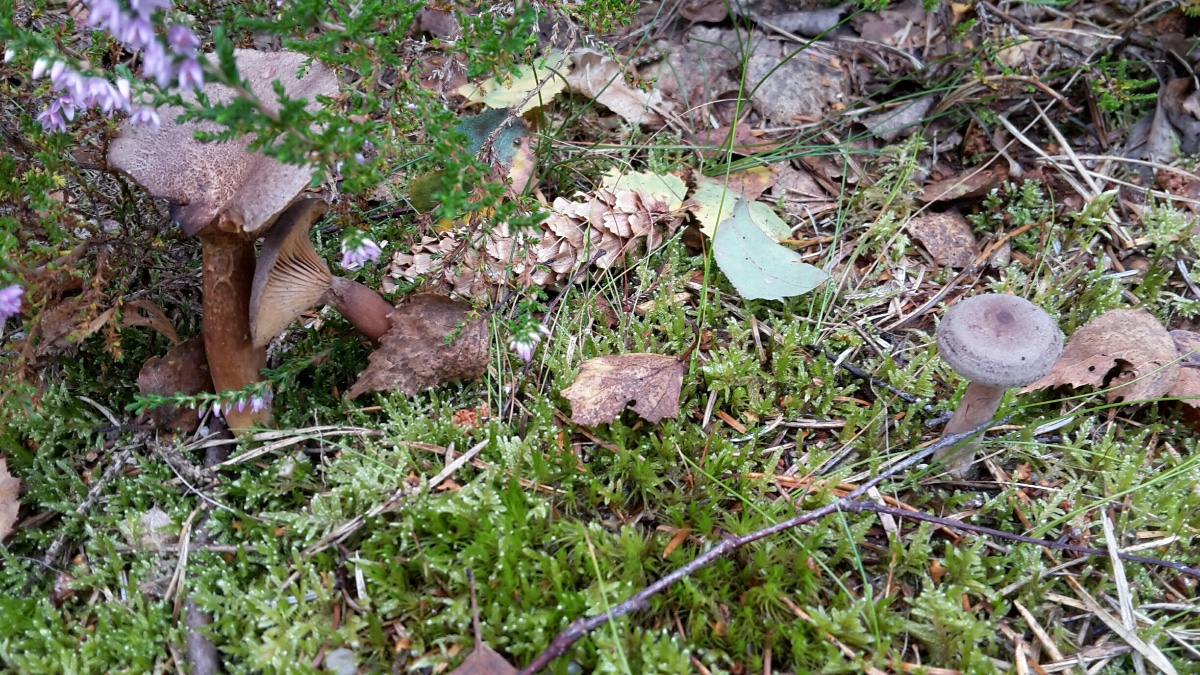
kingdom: Fungi
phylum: Basidiomycota
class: Agaricomycetes
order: Russulales
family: Russulaceae
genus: Lactarius
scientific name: Lactarius mammosus
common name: kokosbrun mælkehat
